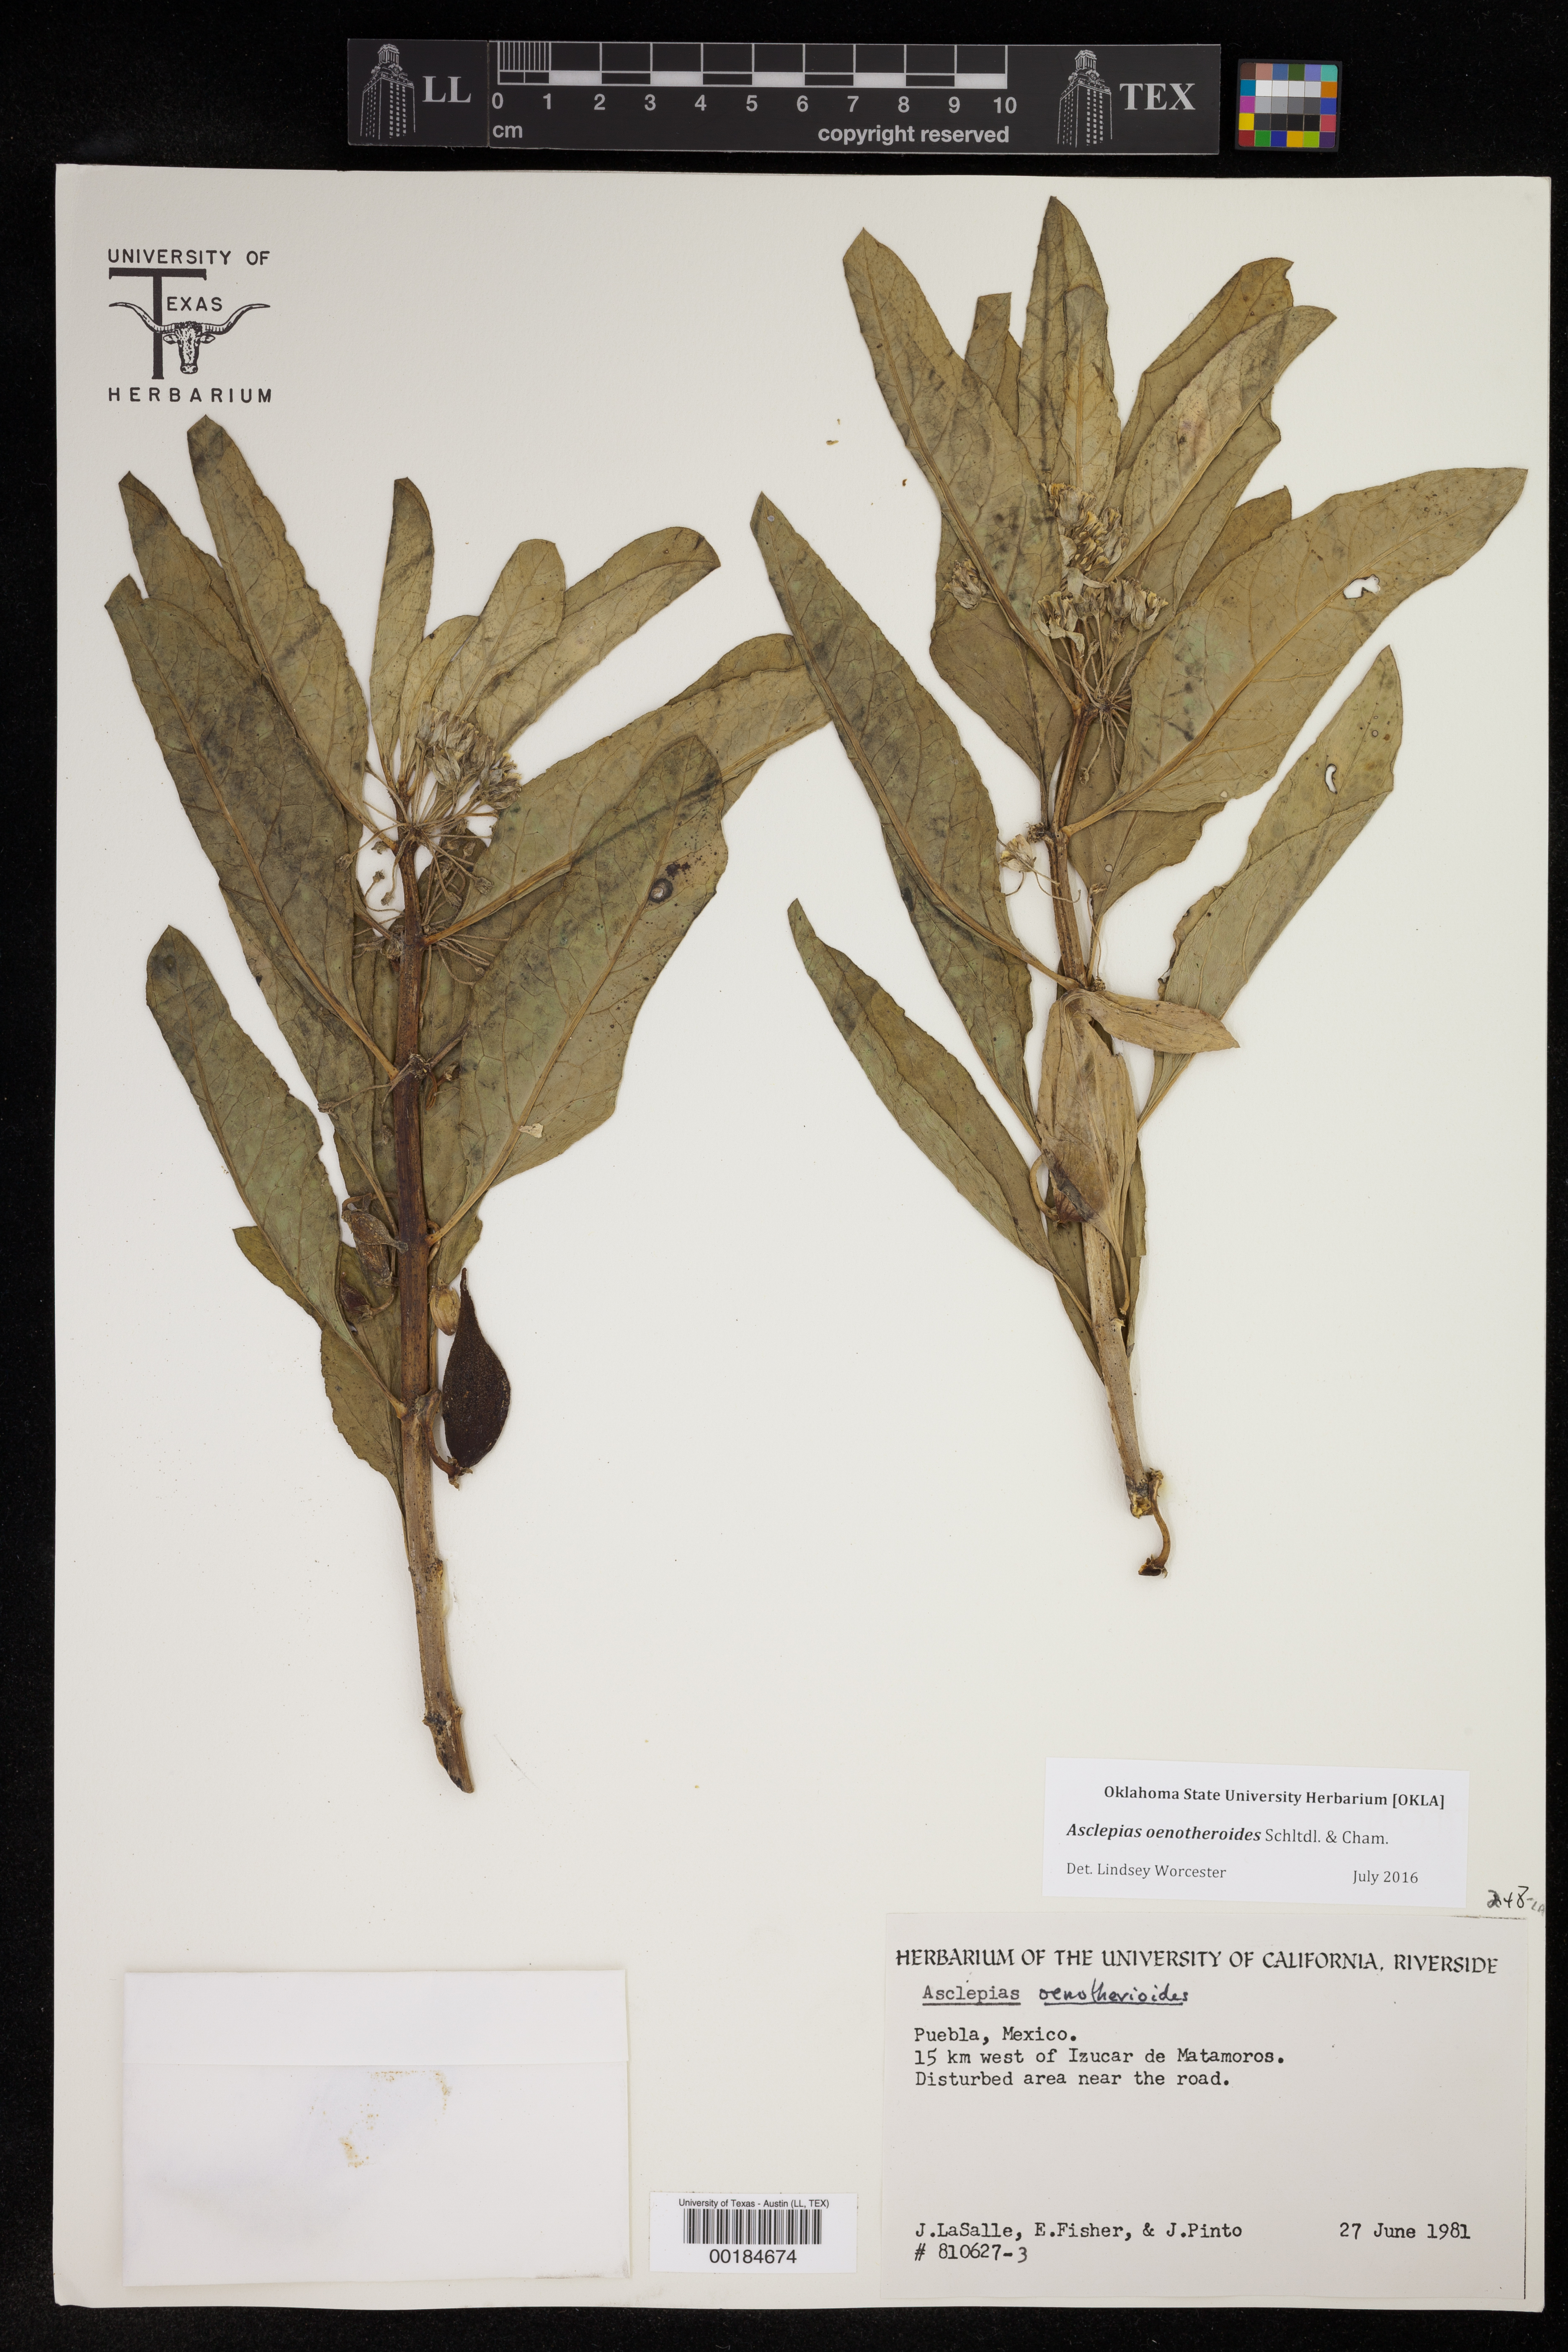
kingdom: Plantae
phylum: Tracheophyta
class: Magnoliopsida
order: Gentianales
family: Apocynaceae
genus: Asclepias
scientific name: Asclepias oenotheroides
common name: Zizotes milkweed
